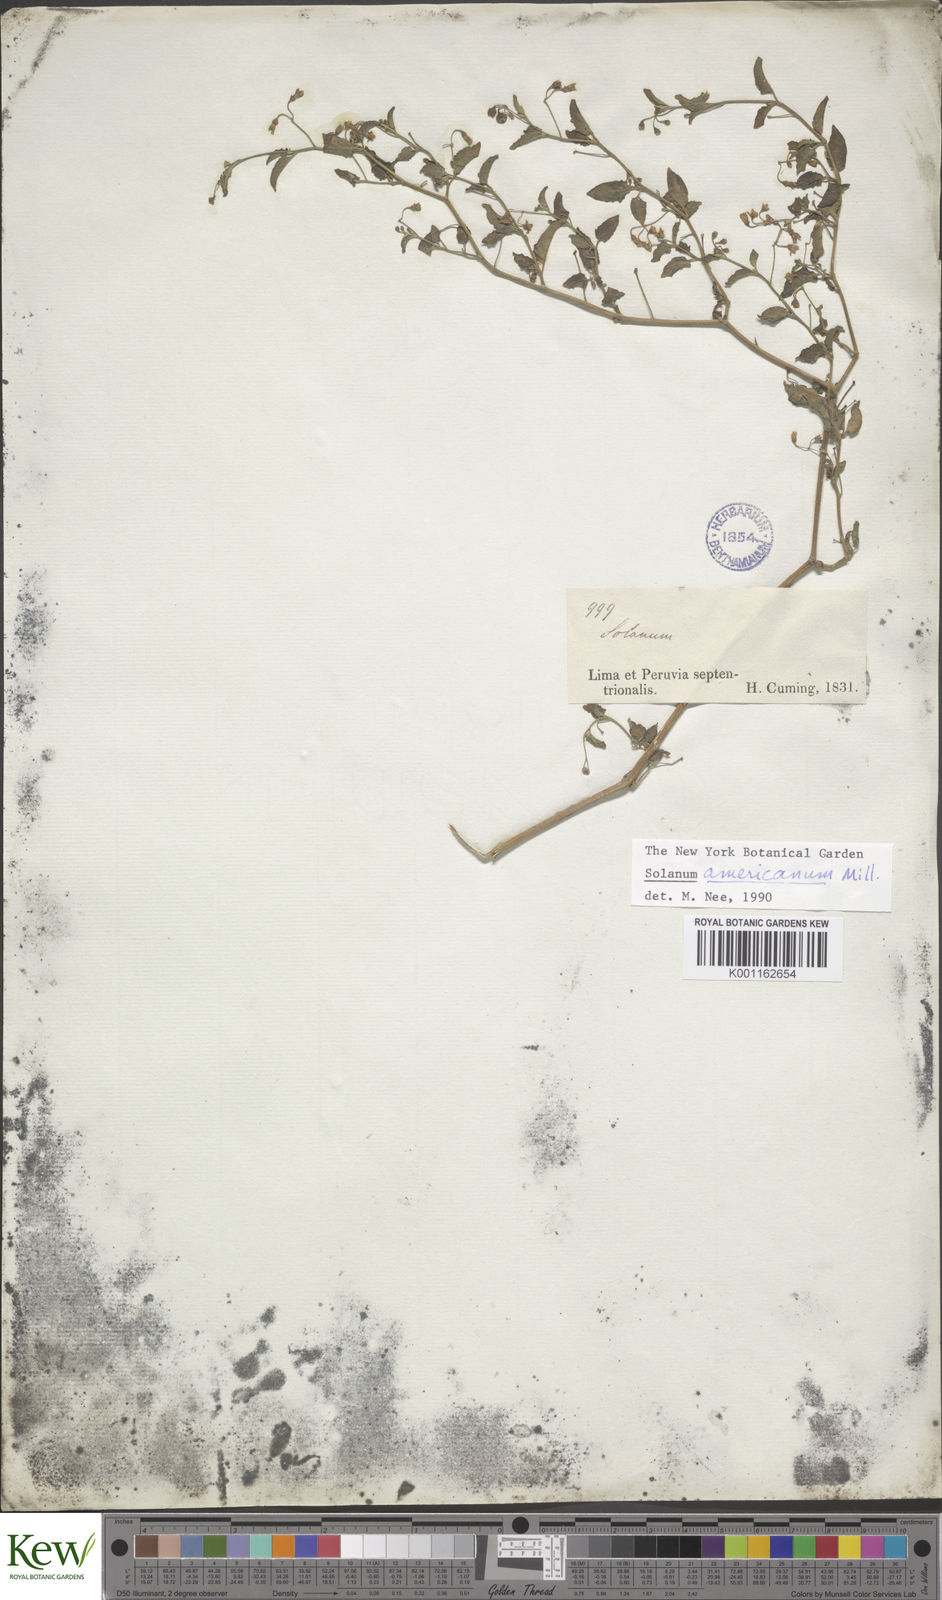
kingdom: Plantae
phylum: Tracheophyta
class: Magnoliopsida
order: Solanales
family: Solanaceae
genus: Solanum
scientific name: Solanum americanum
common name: American black nightshade
